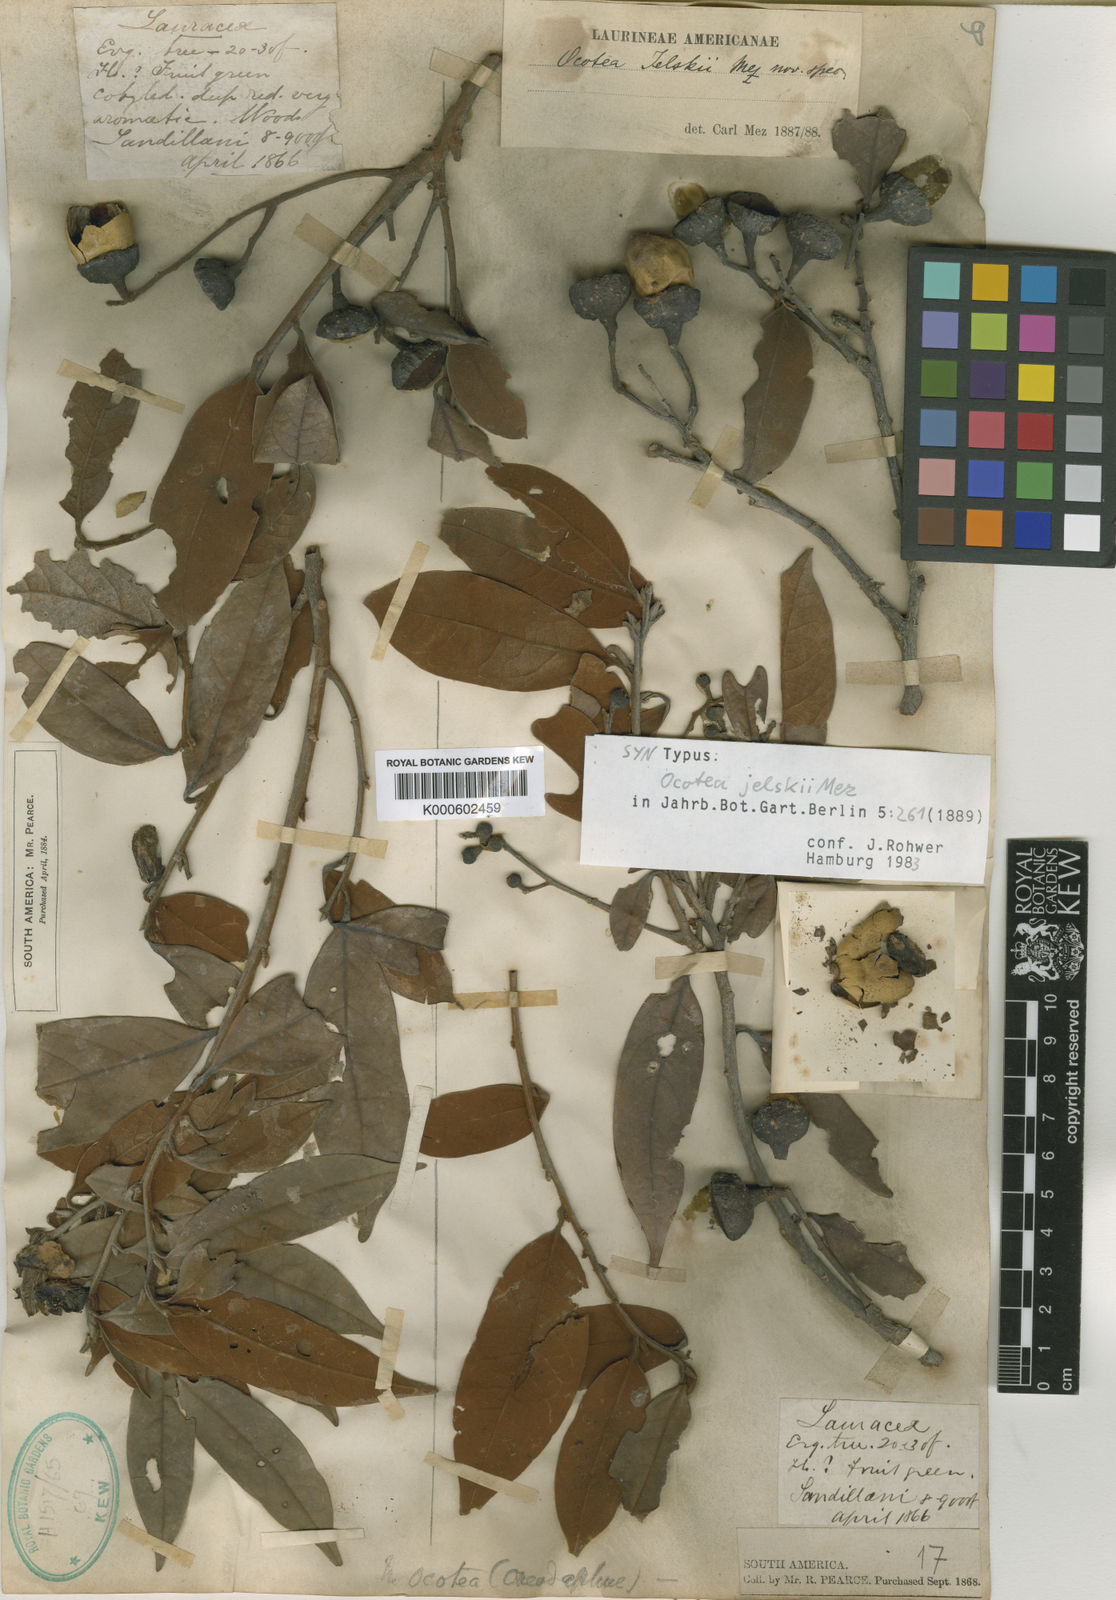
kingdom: Plantae
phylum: Tracheophyta
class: Magnoliopsida
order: Laurales
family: Lauraceae
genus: Ocotea
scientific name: Ocotea jelskii
